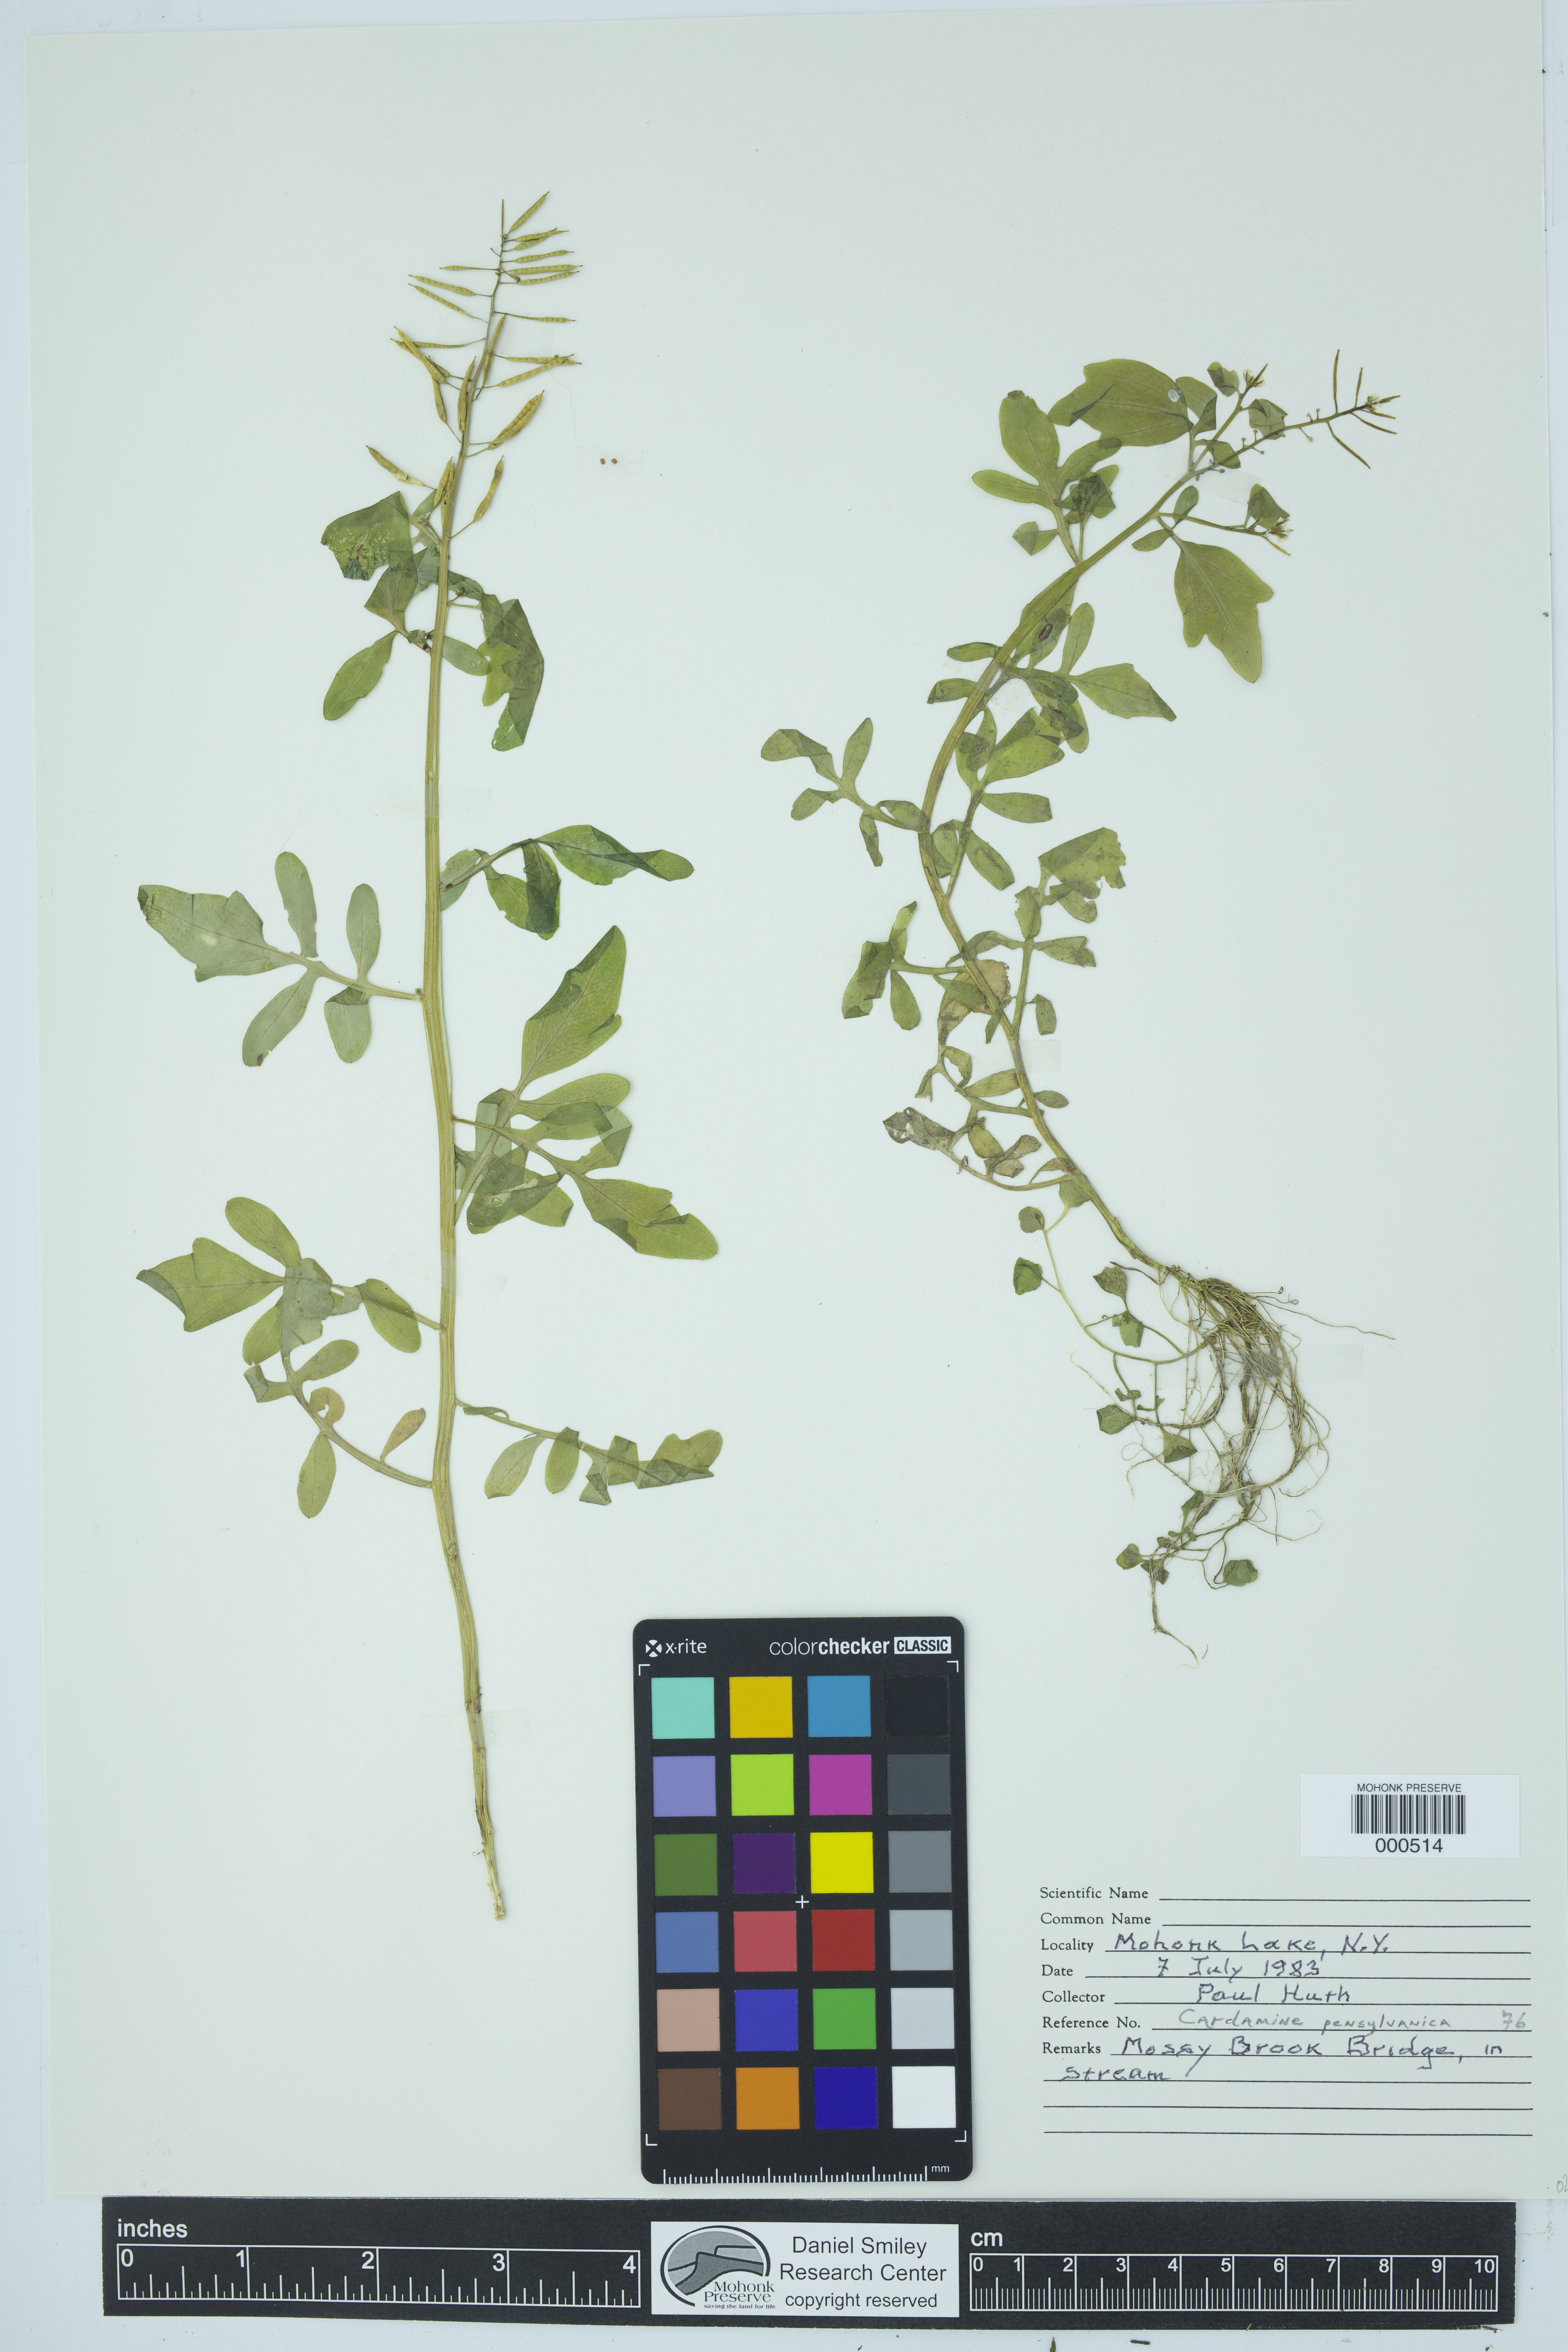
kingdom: Plantae
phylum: Tracheophyta
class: Magnoliopsida
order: Brassicales
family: Brassicaceae
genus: Cardamine
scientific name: Cardamine pensylvanica
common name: Pennsylvania bittercress
